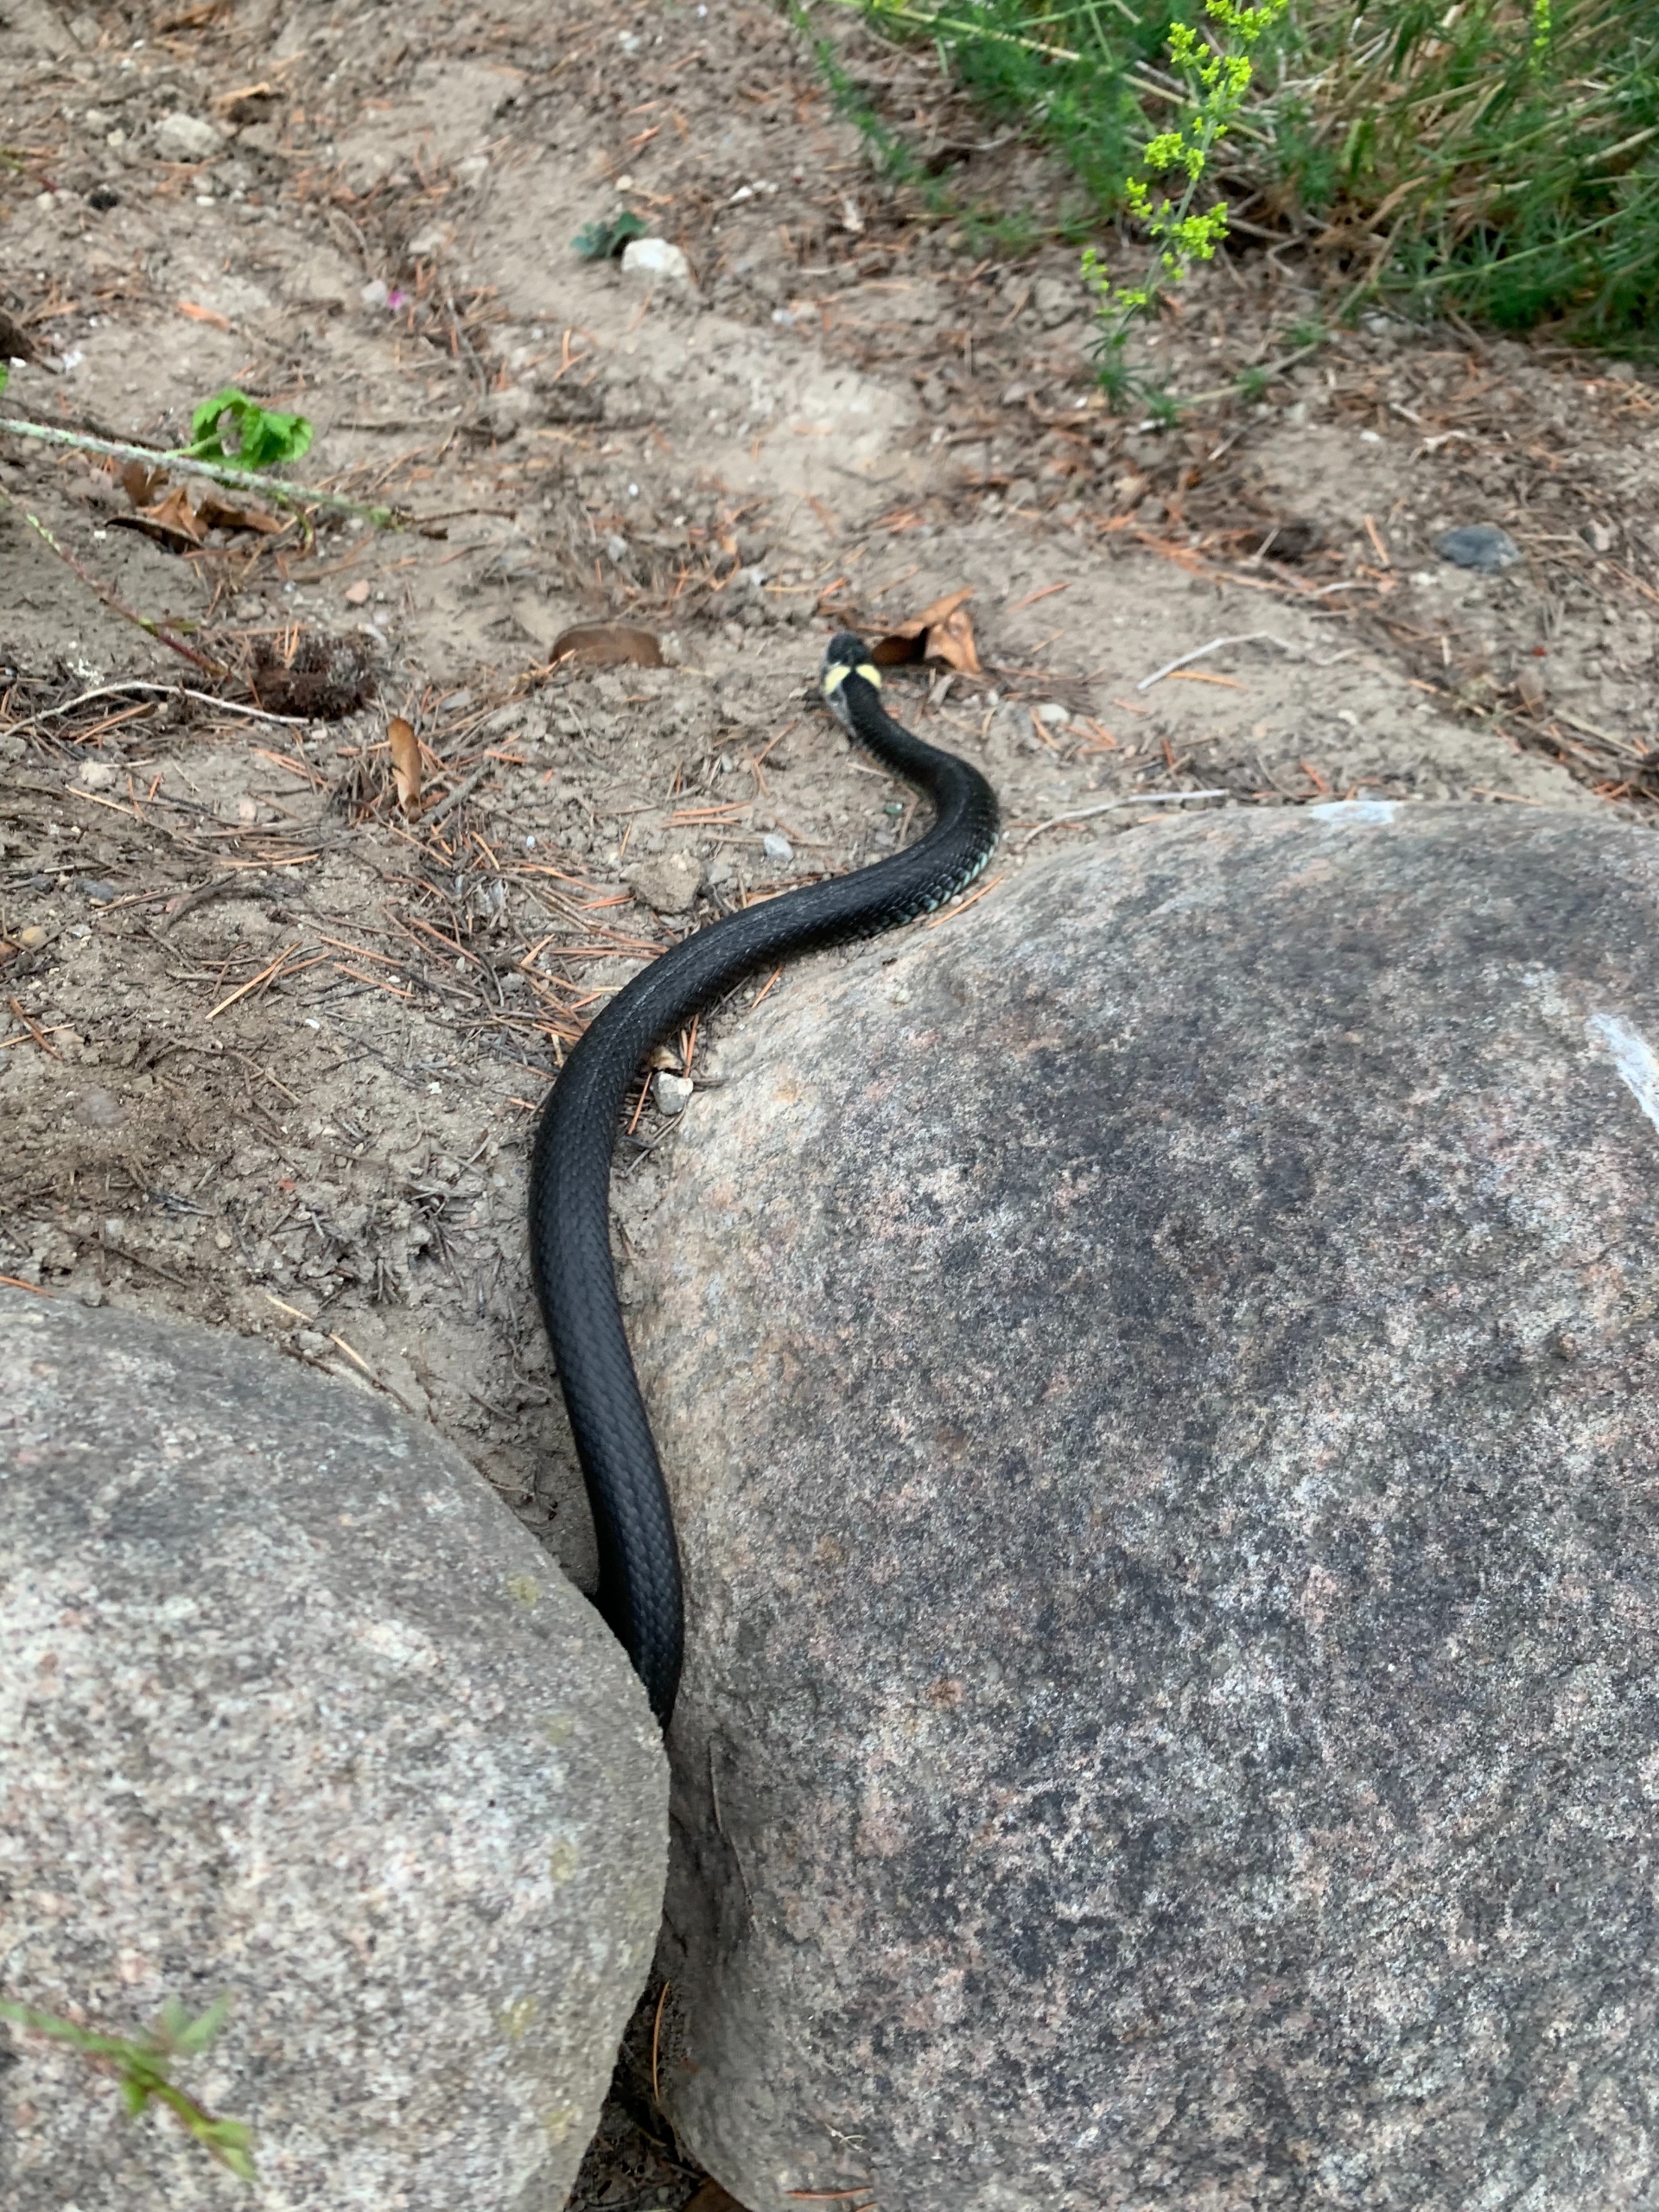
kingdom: Animalia
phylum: Chordata
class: Squamata
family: Colubridae
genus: Natrix
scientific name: Natrix natrix
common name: Snog
